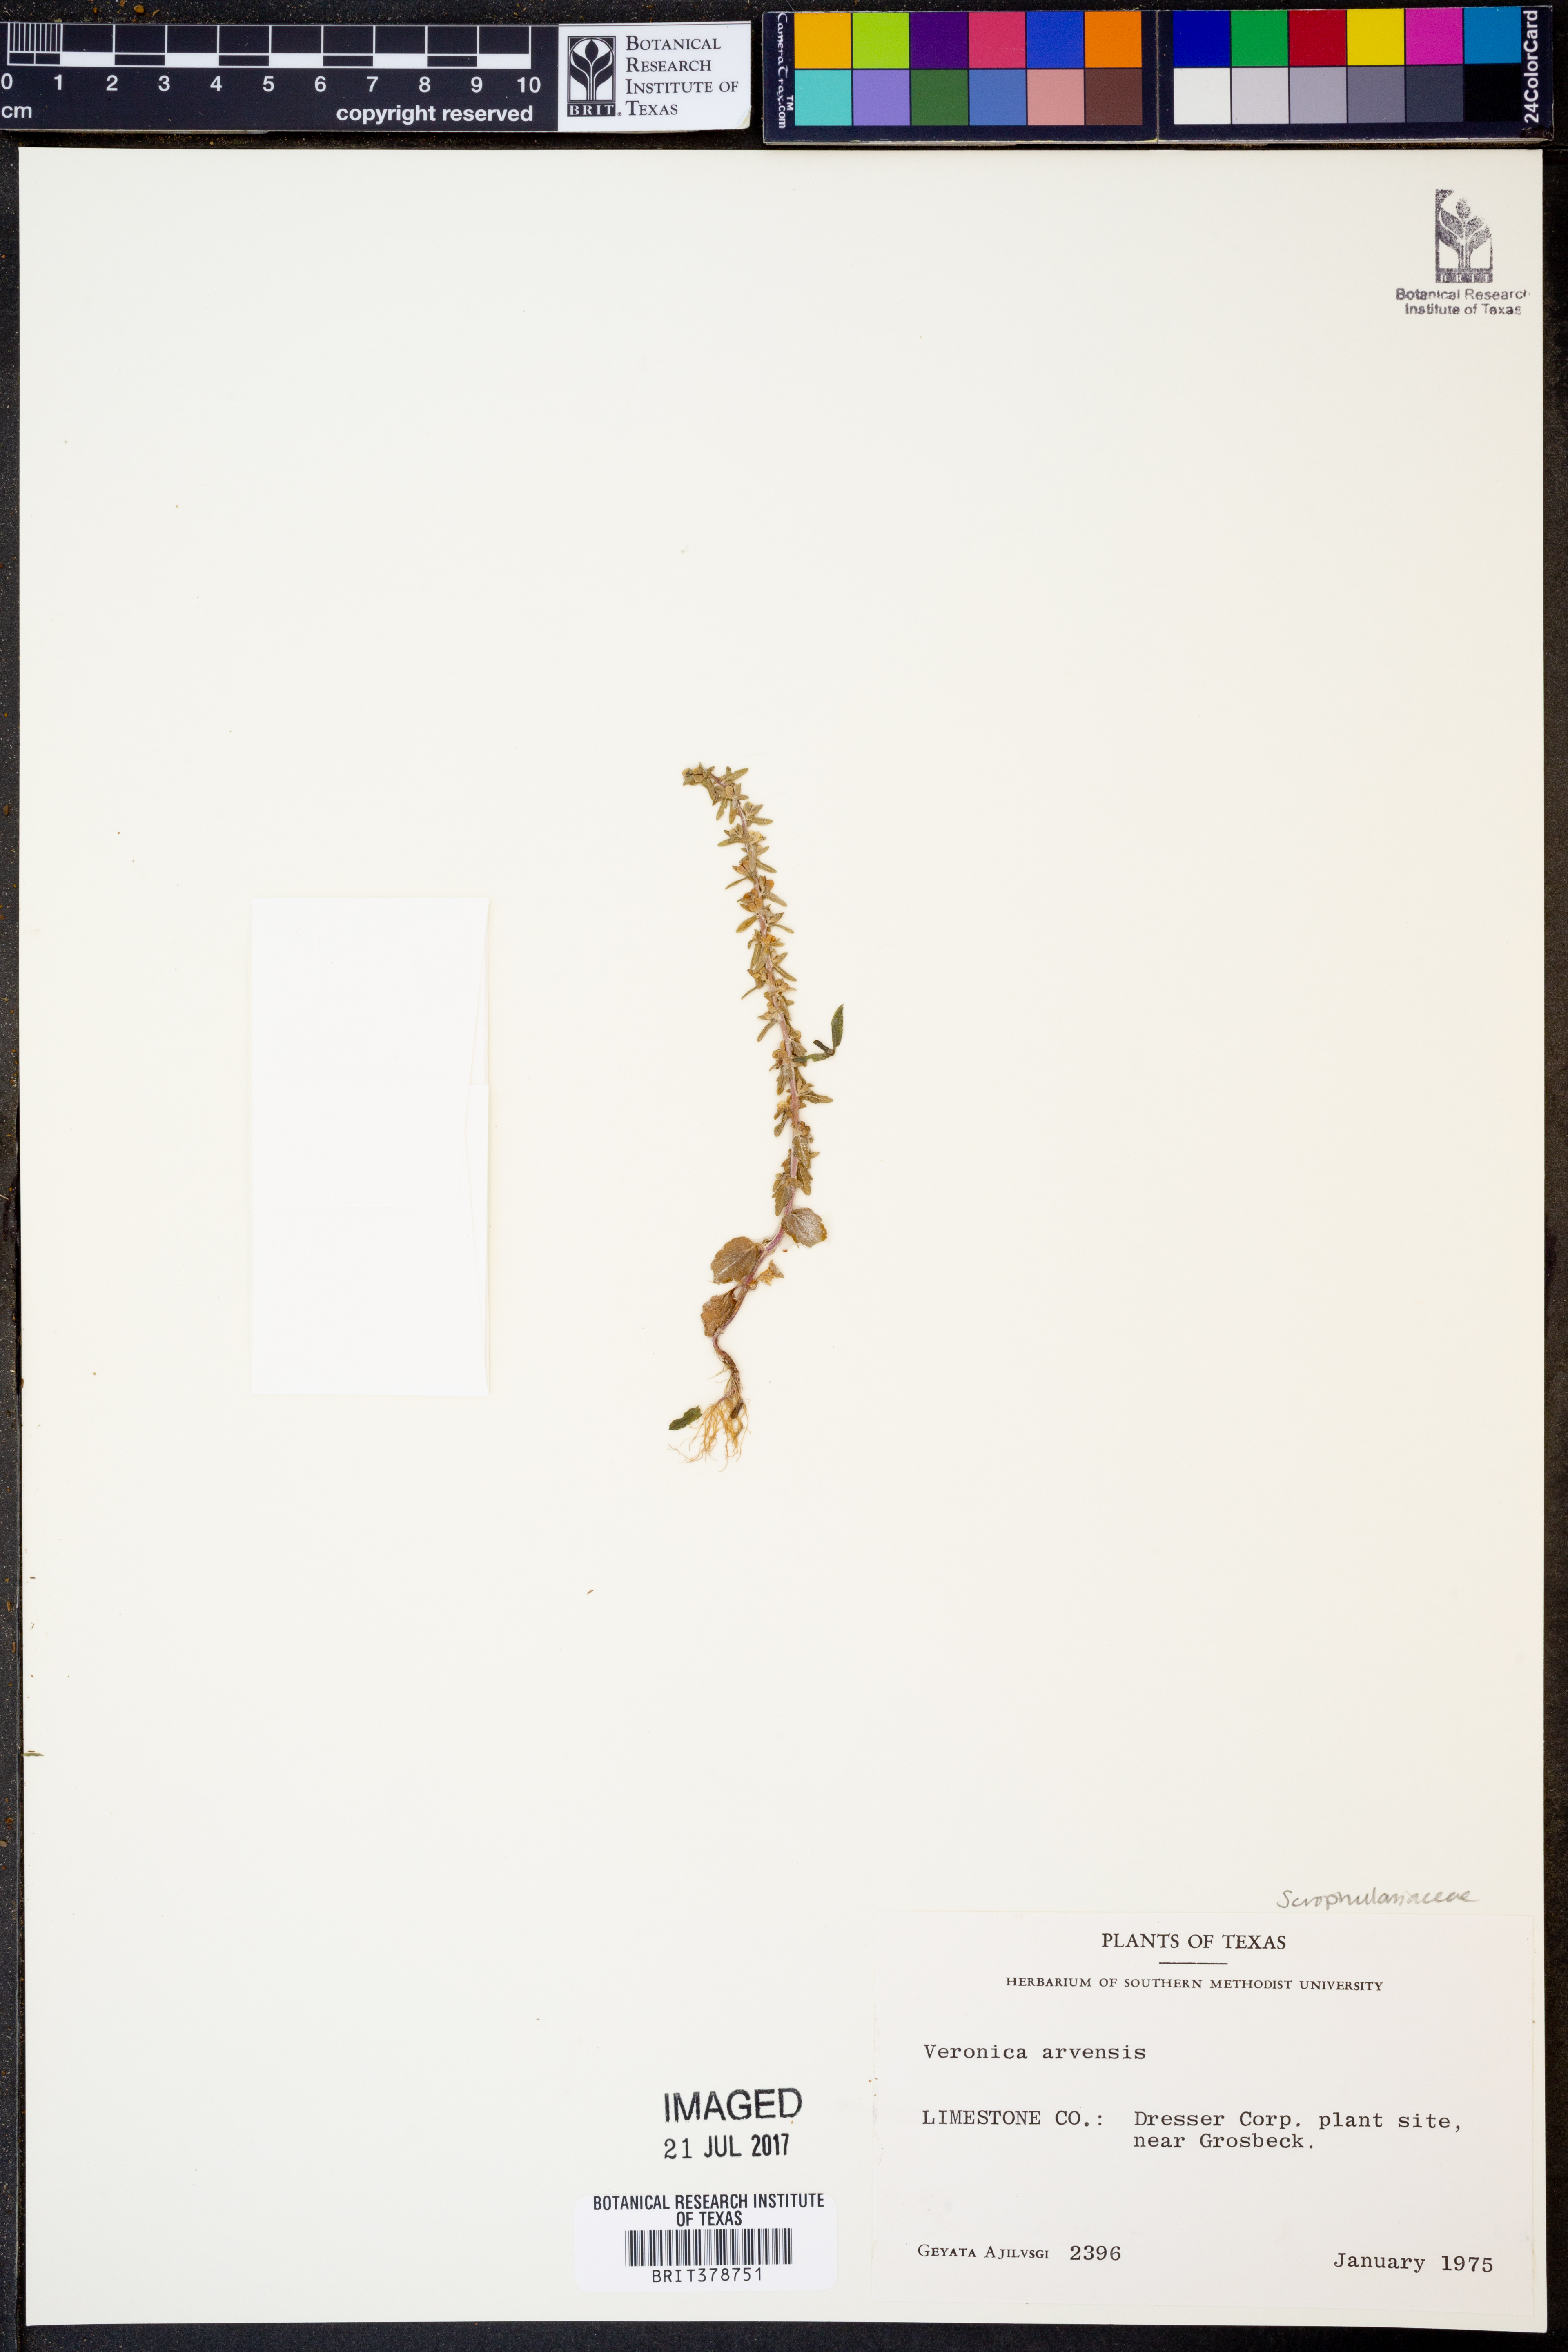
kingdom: Plantae
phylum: Tracheophyta
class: Magnoliopsida
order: Lamiales
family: Plantaginaceae
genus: Veronica
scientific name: Veronica arvensis
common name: Corn speedwell
